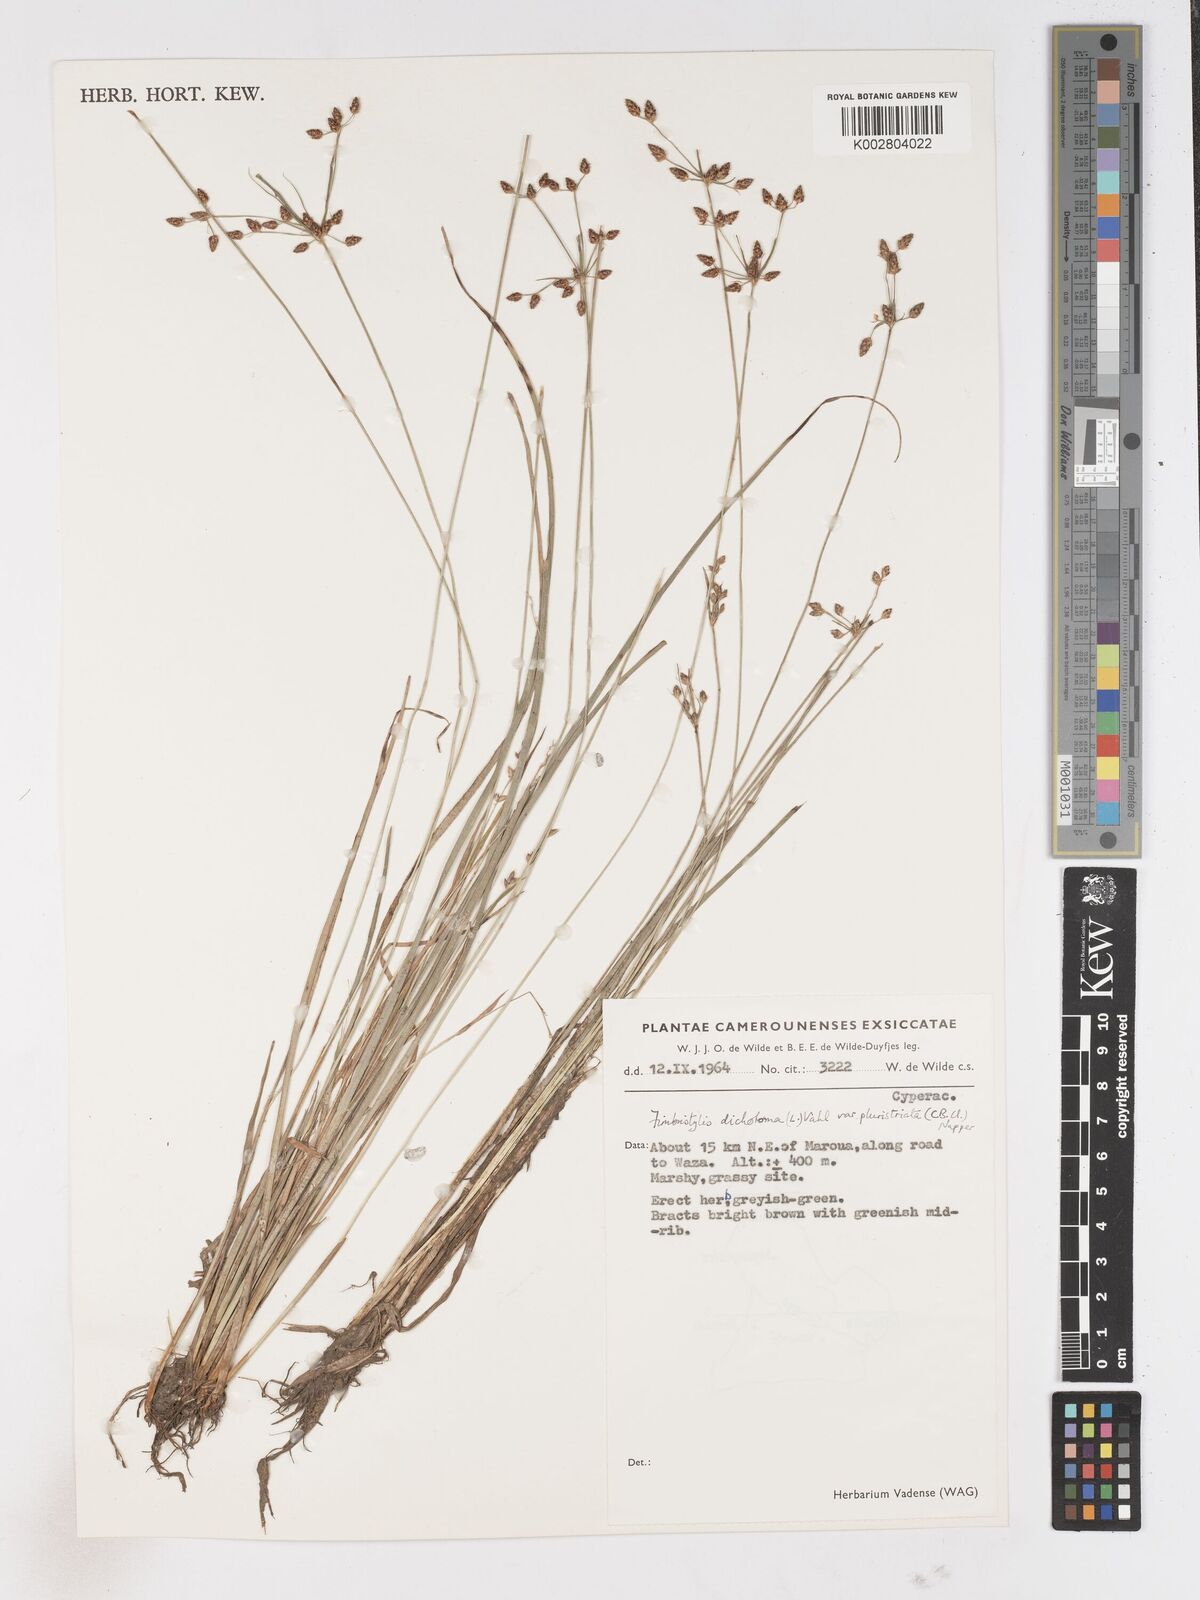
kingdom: Plantae
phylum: Tracheophyta
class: Liliopsida
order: Poales
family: Cyperaceae
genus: Fimbristylis
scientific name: Fimbristylis dichotoma
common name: Forked fimbry
